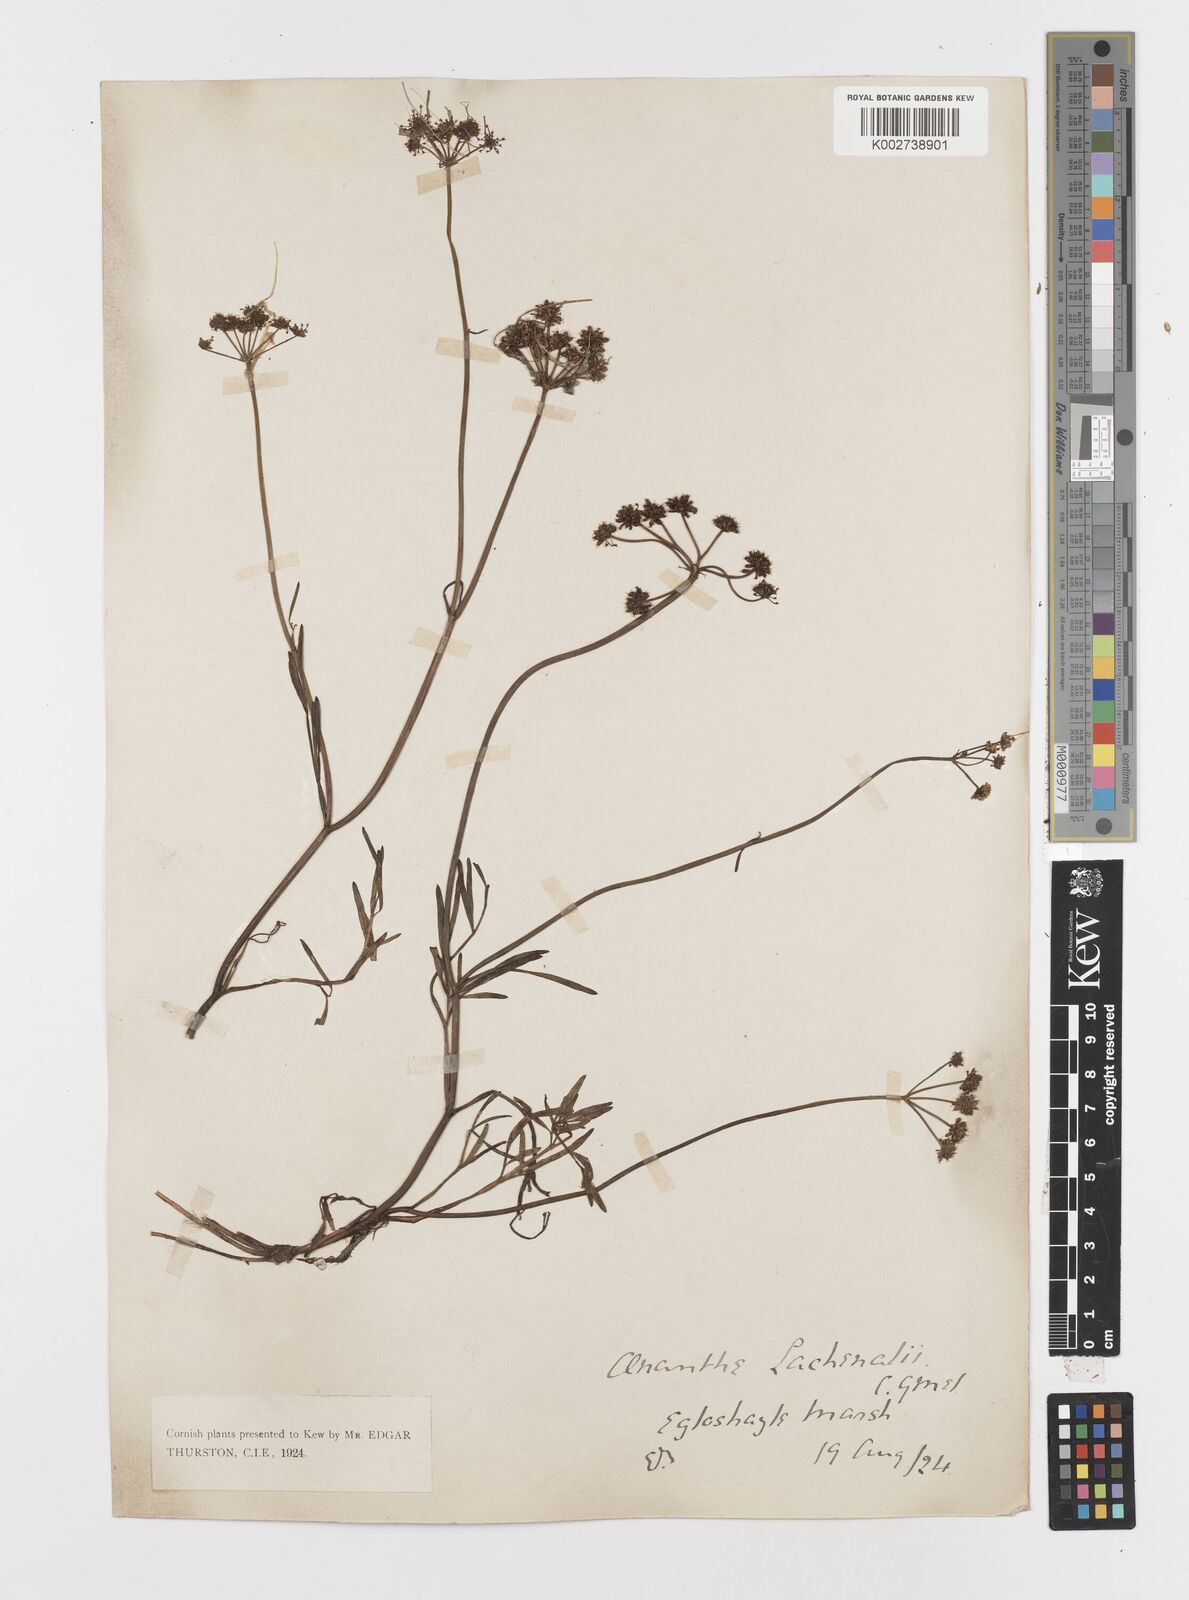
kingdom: Plantae
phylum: Tracheophyta
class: Magnoliopsida
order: Apiales
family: Apiaceae
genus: Oenanthe
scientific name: Oenanthe lachenalii
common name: Parsley water-dropwort
